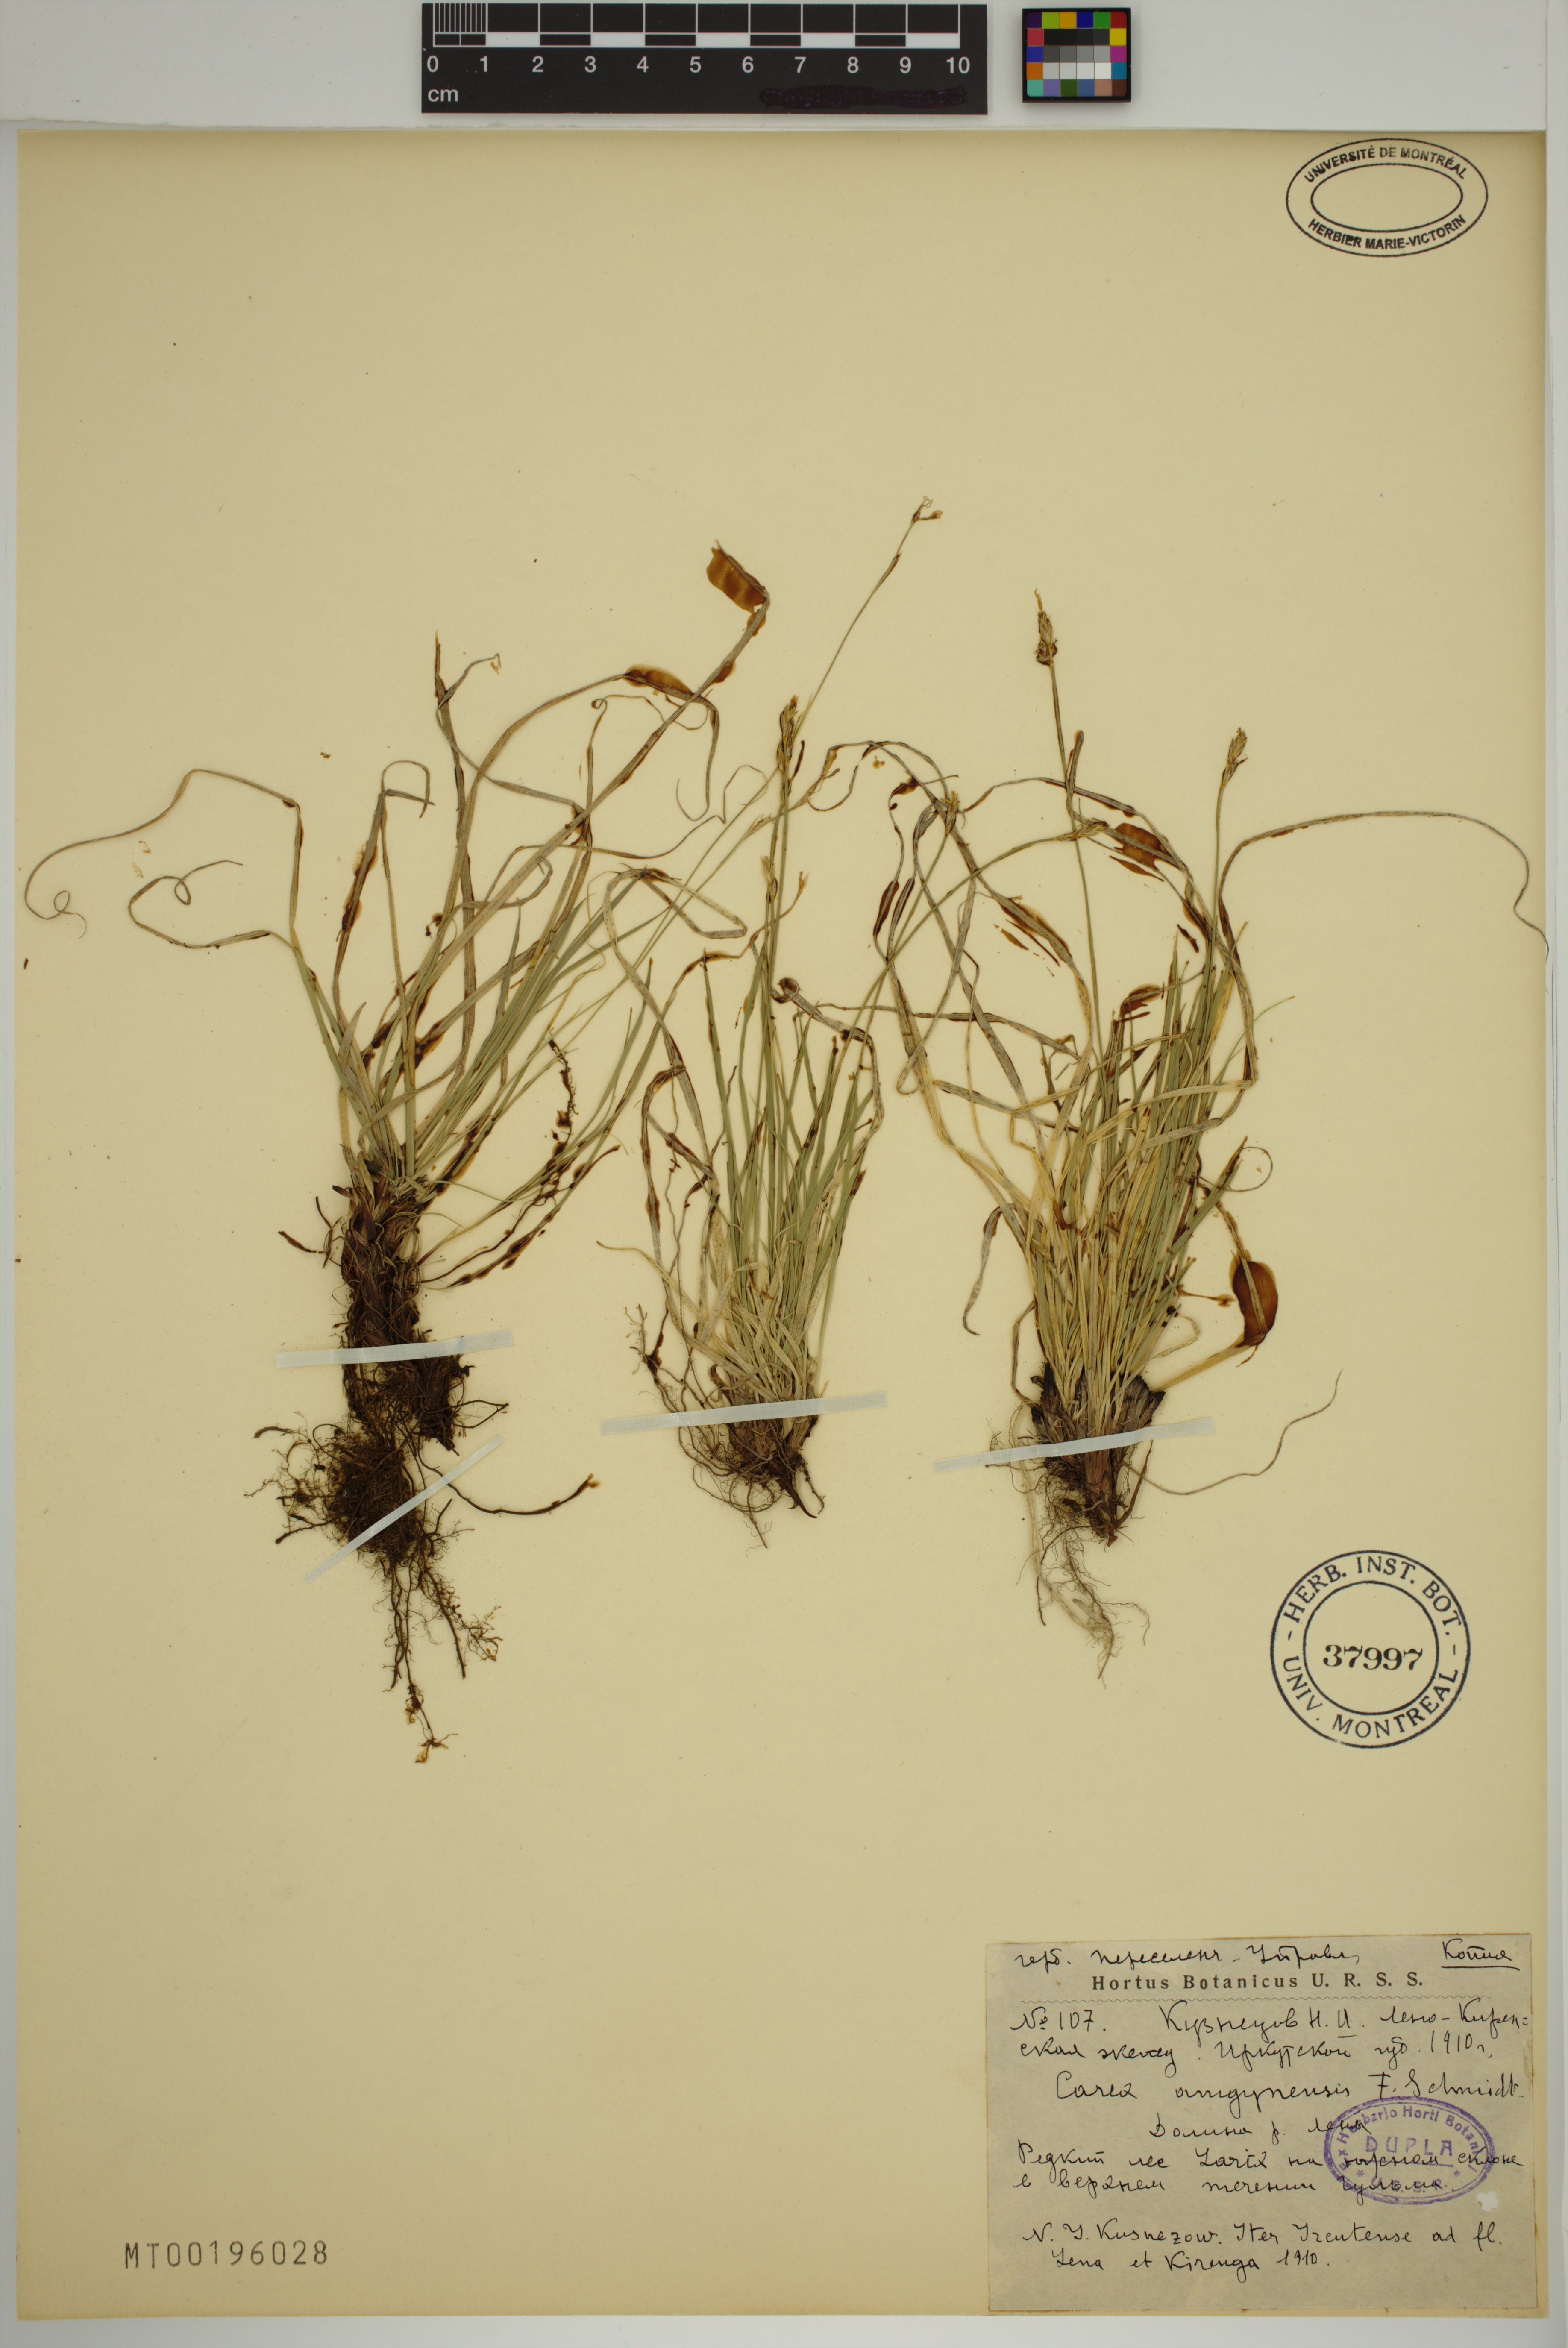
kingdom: Plantae
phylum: Tracheophyta
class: Liliopsida
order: Poales
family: Cyperaceae
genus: Carex
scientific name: Carex amgunensis
